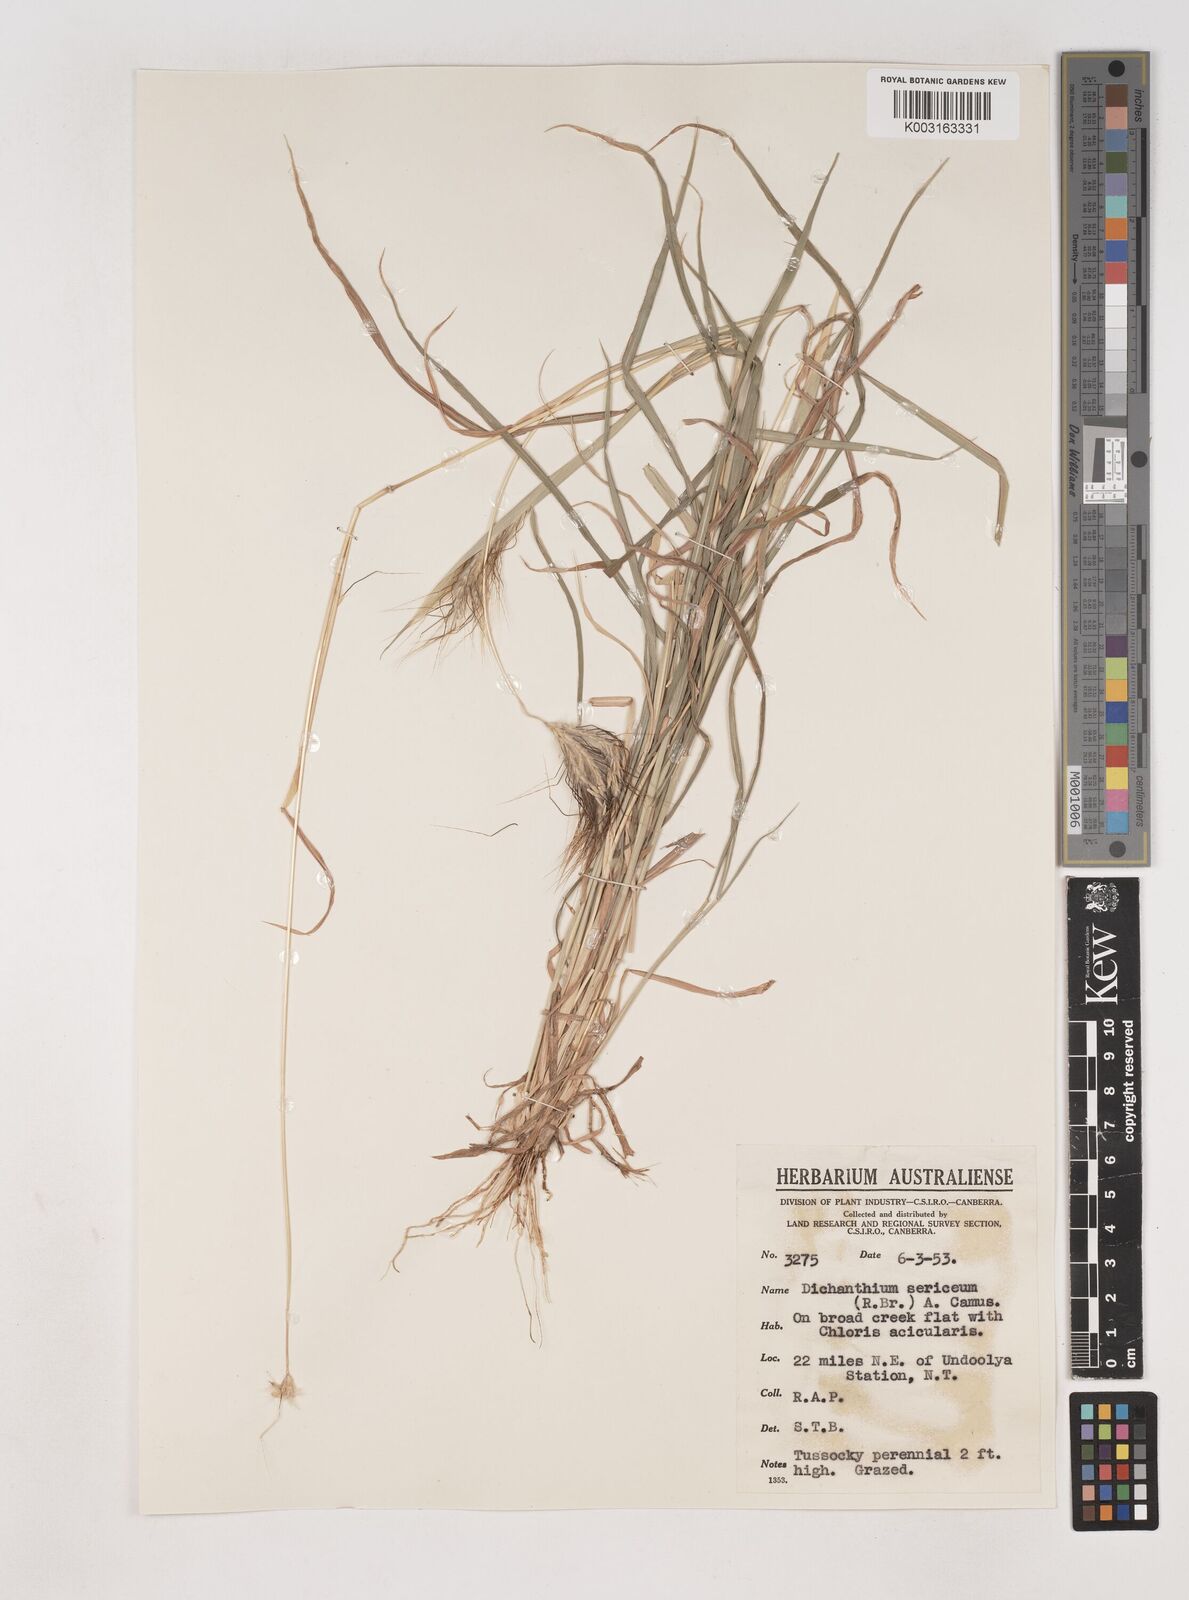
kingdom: Plantae
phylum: Tracheophyta
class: Liliopsida
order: Poales
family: Poaceae
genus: Dichanthium
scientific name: Dichanthium sericeum
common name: Silky bluestem
